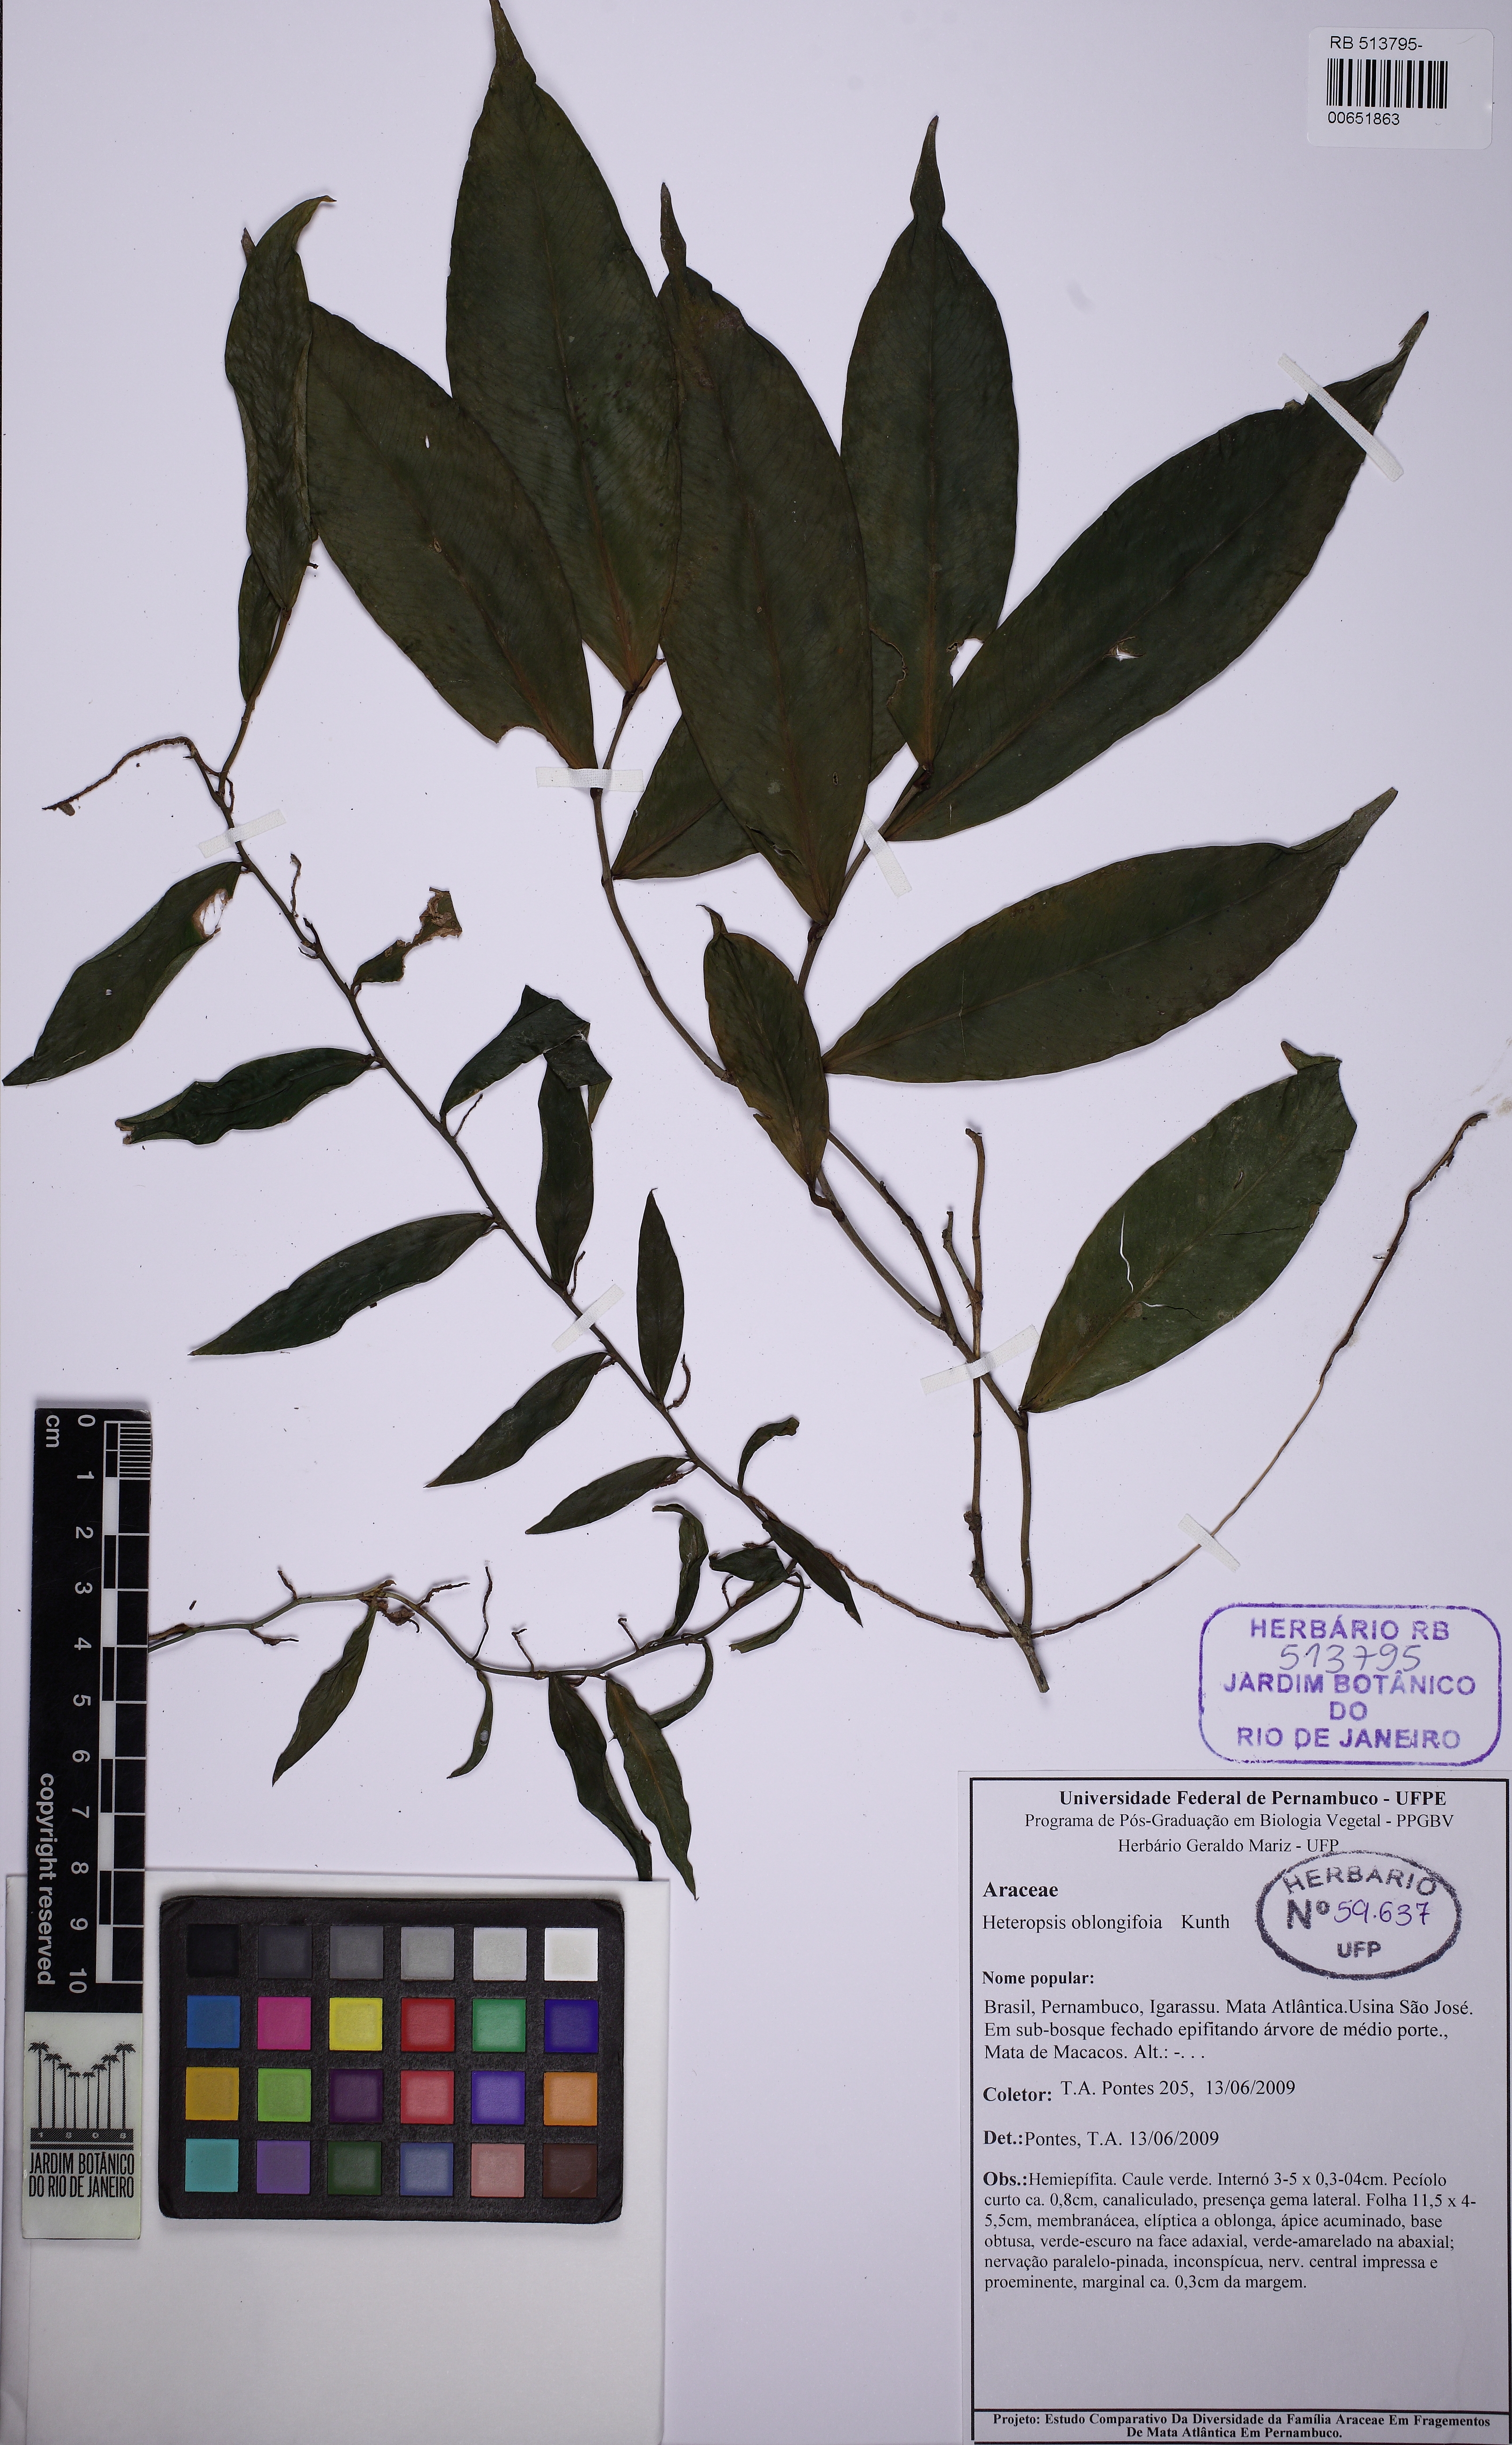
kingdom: Plantae
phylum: Tracheophyta
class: Liliopsida
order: Alismatales
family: Araceae
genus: Heteropsis
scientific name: Heteropsis oblongifolia
